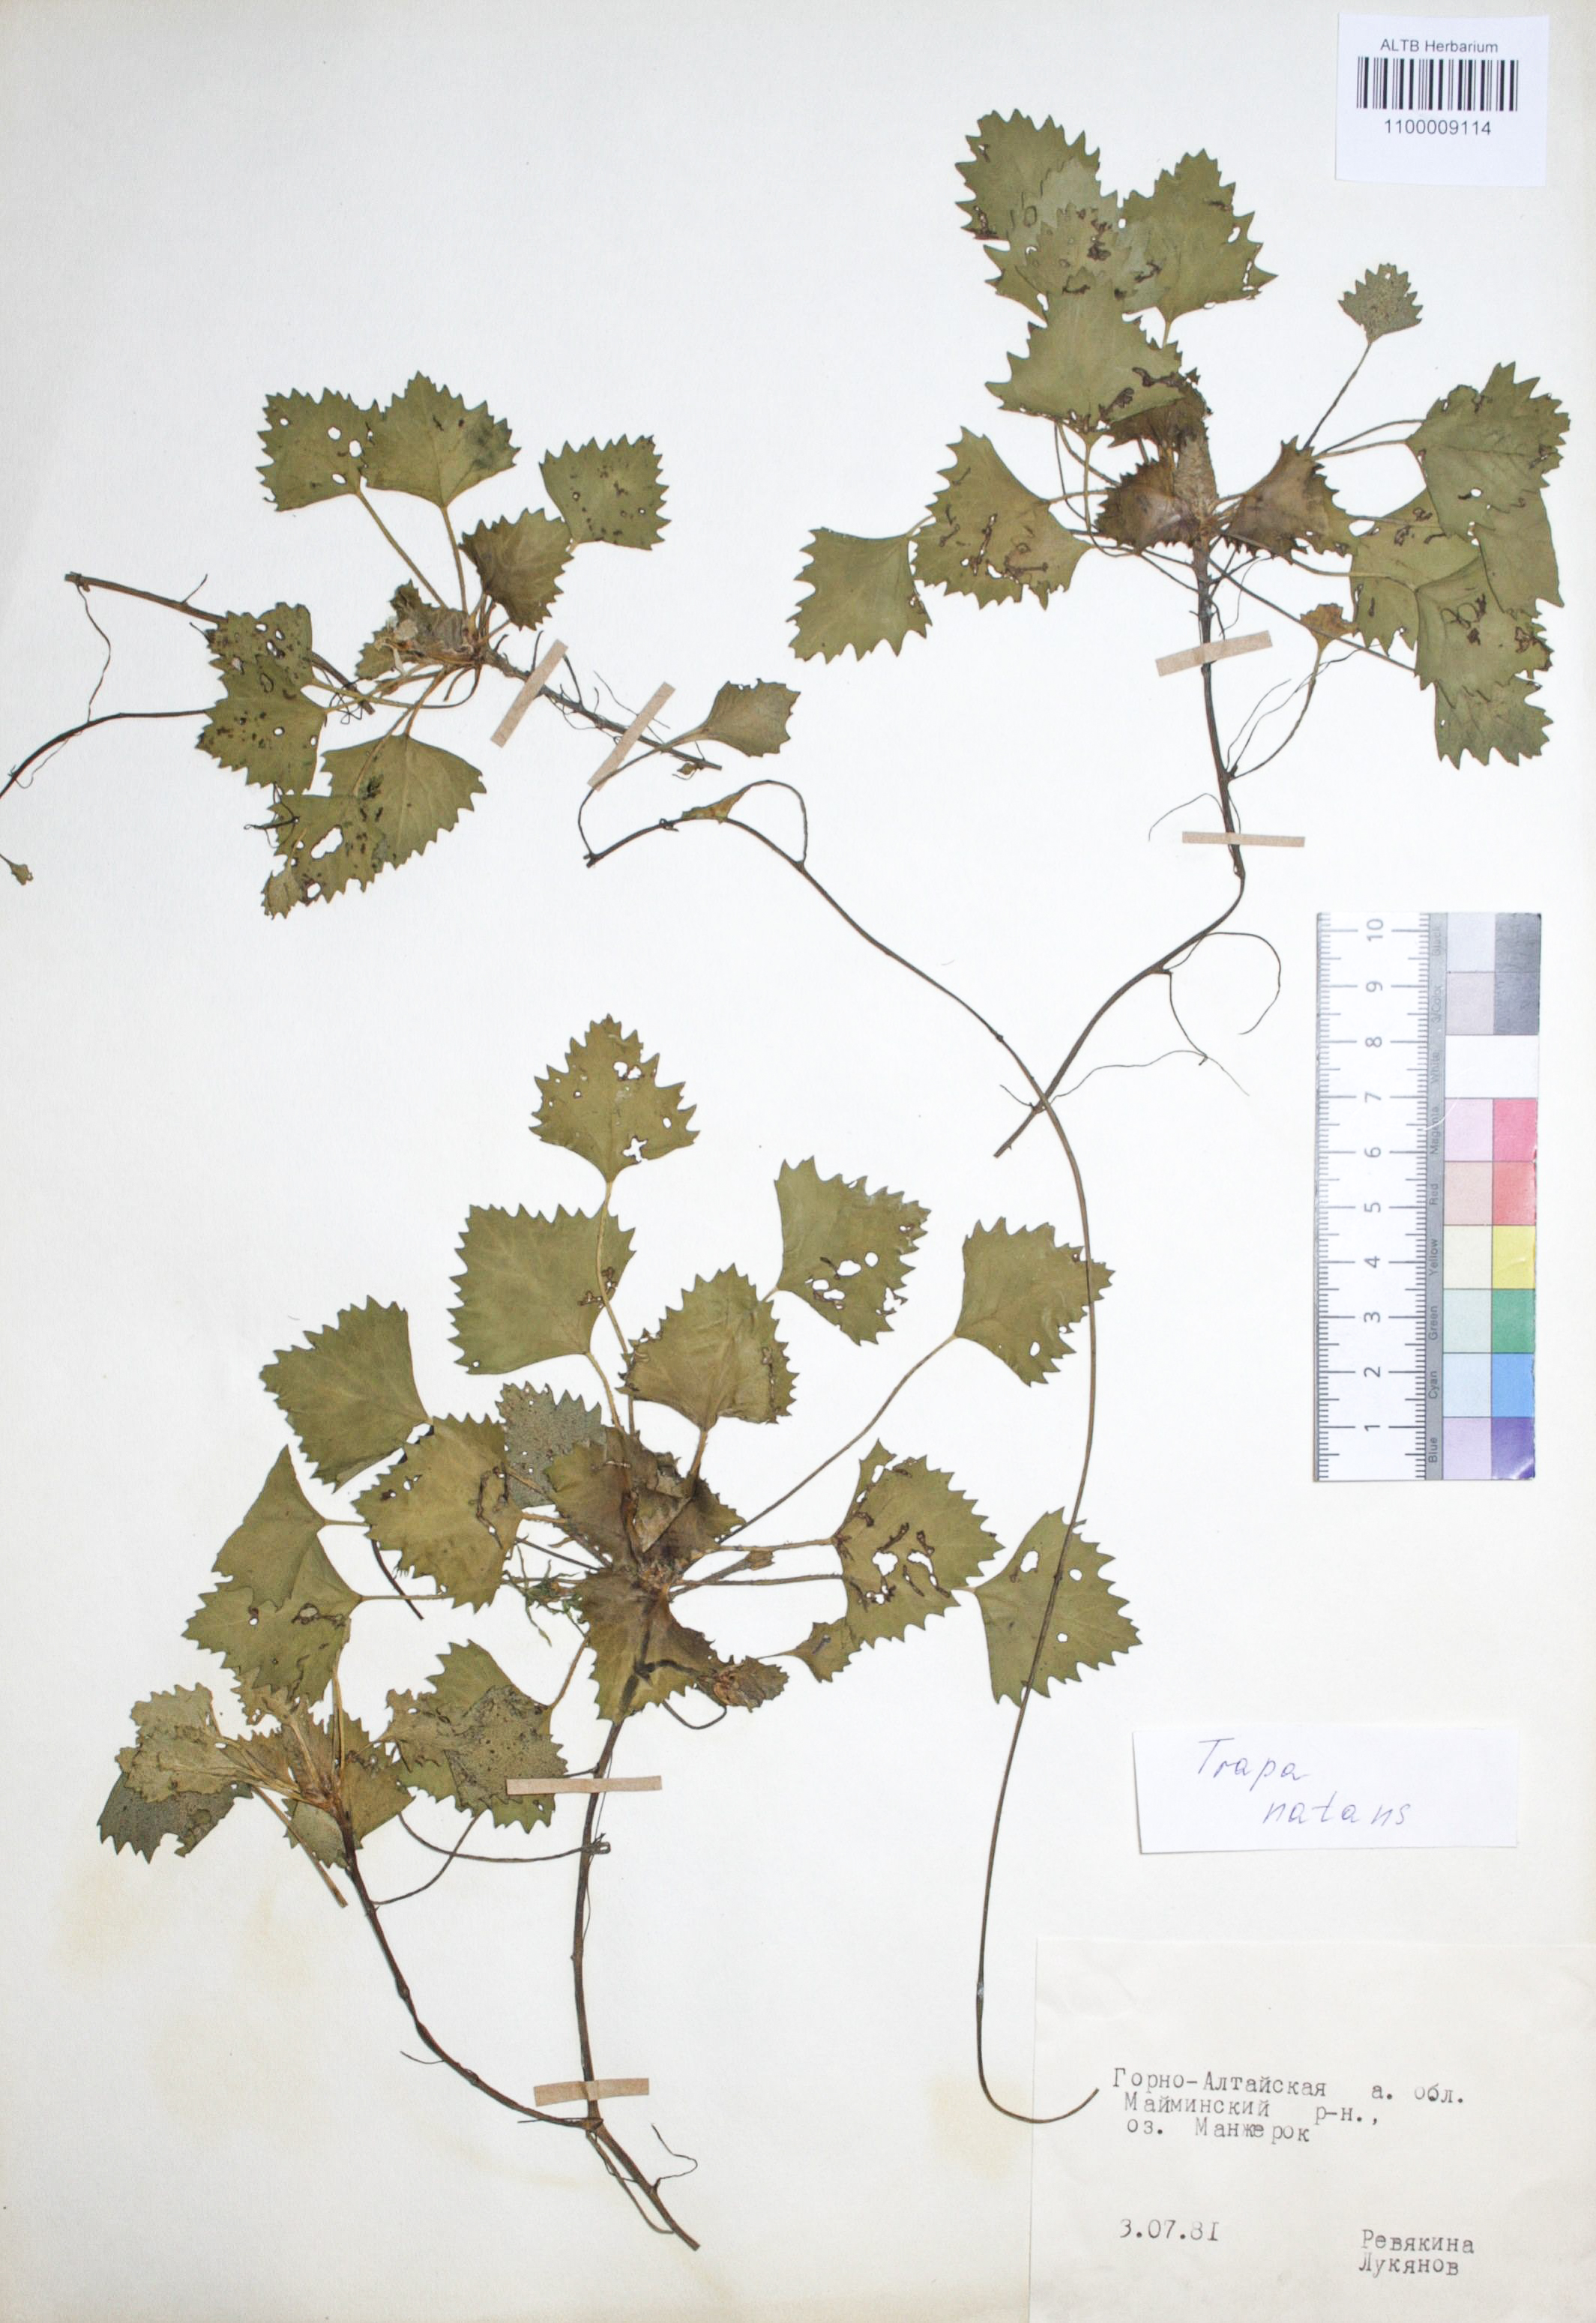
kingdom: Plantae
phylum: Tracheophyta
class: Magnoliopsida
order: Myrtales
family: Lythraceae
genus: Trapa
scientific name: Trapa natans
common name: Water chestnut
